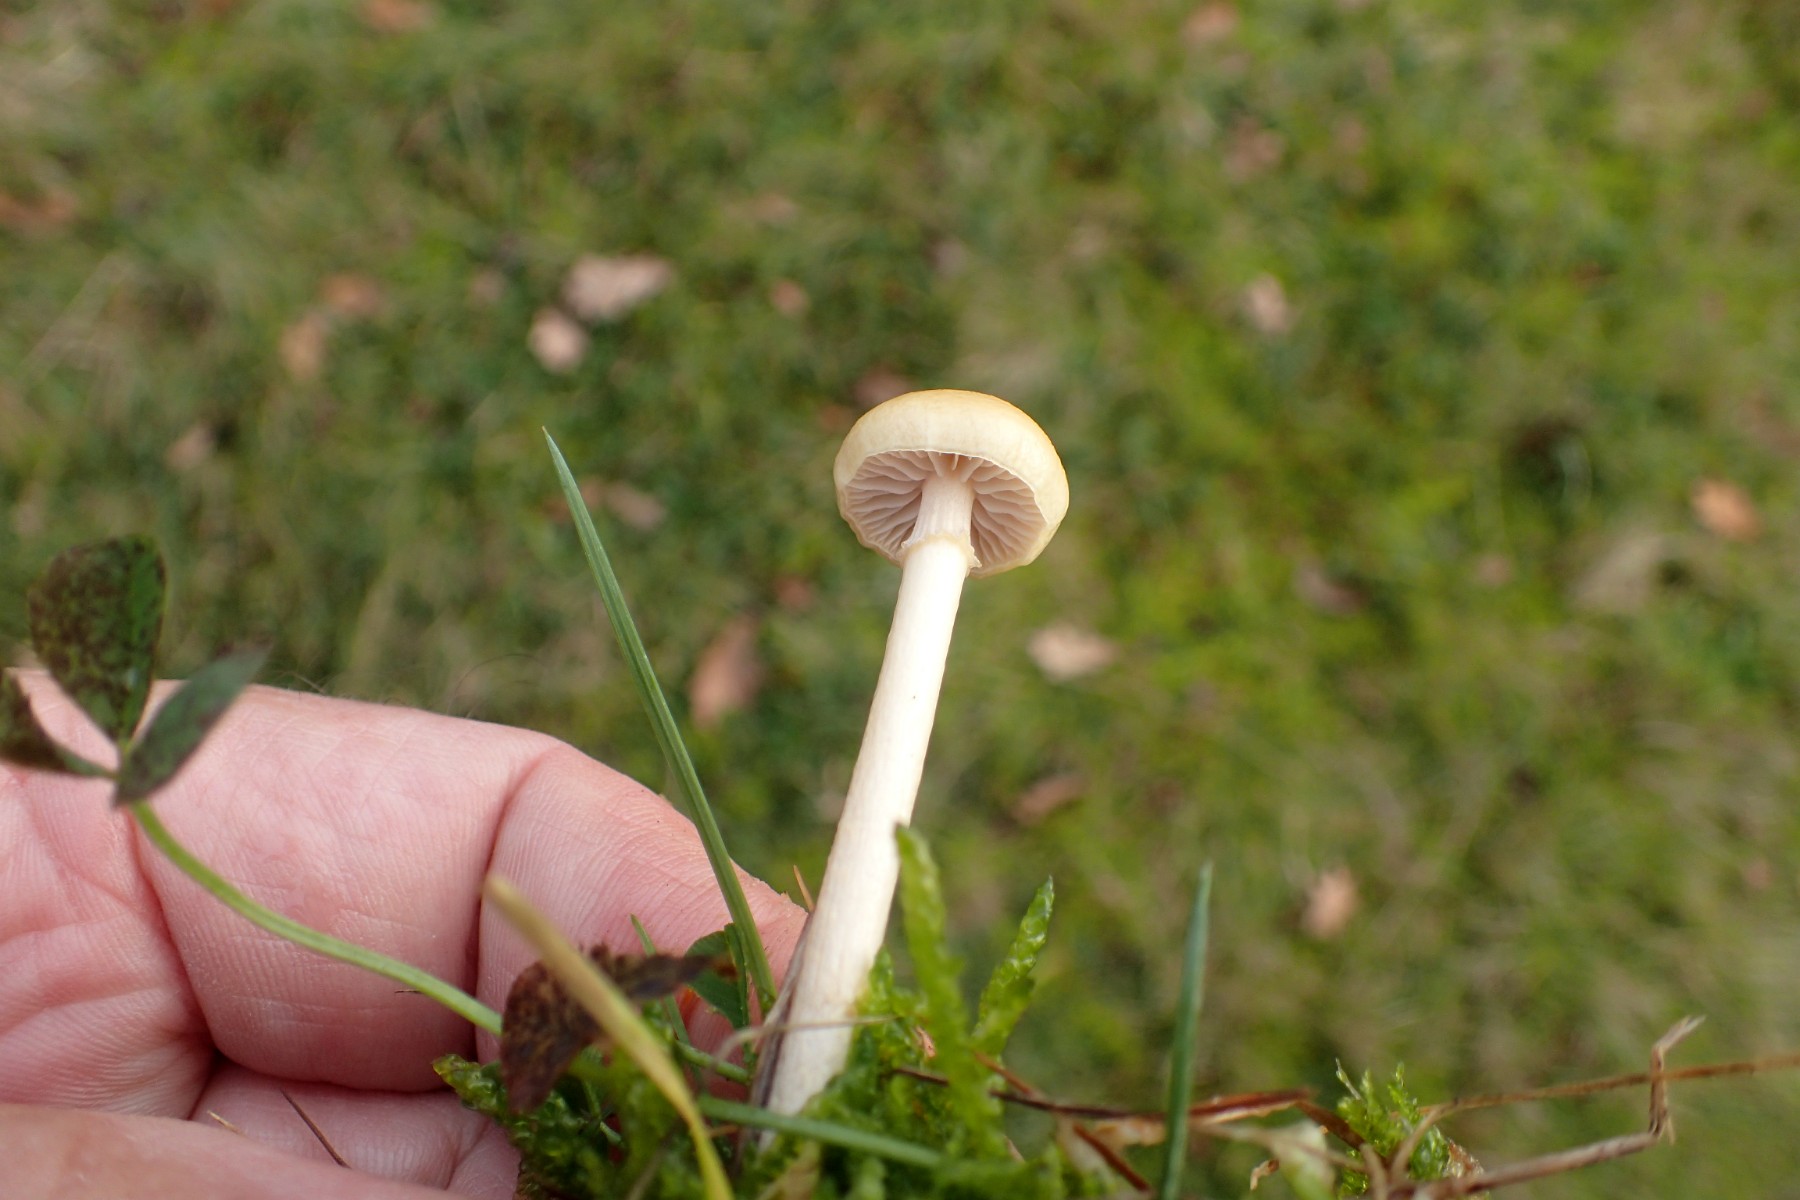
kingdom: Fungi
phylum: Basidiomycota
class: Agaricomycetes
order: Agaricales
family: Strophariaceae
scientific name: Strophariaceae
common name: bredbladfamilien
